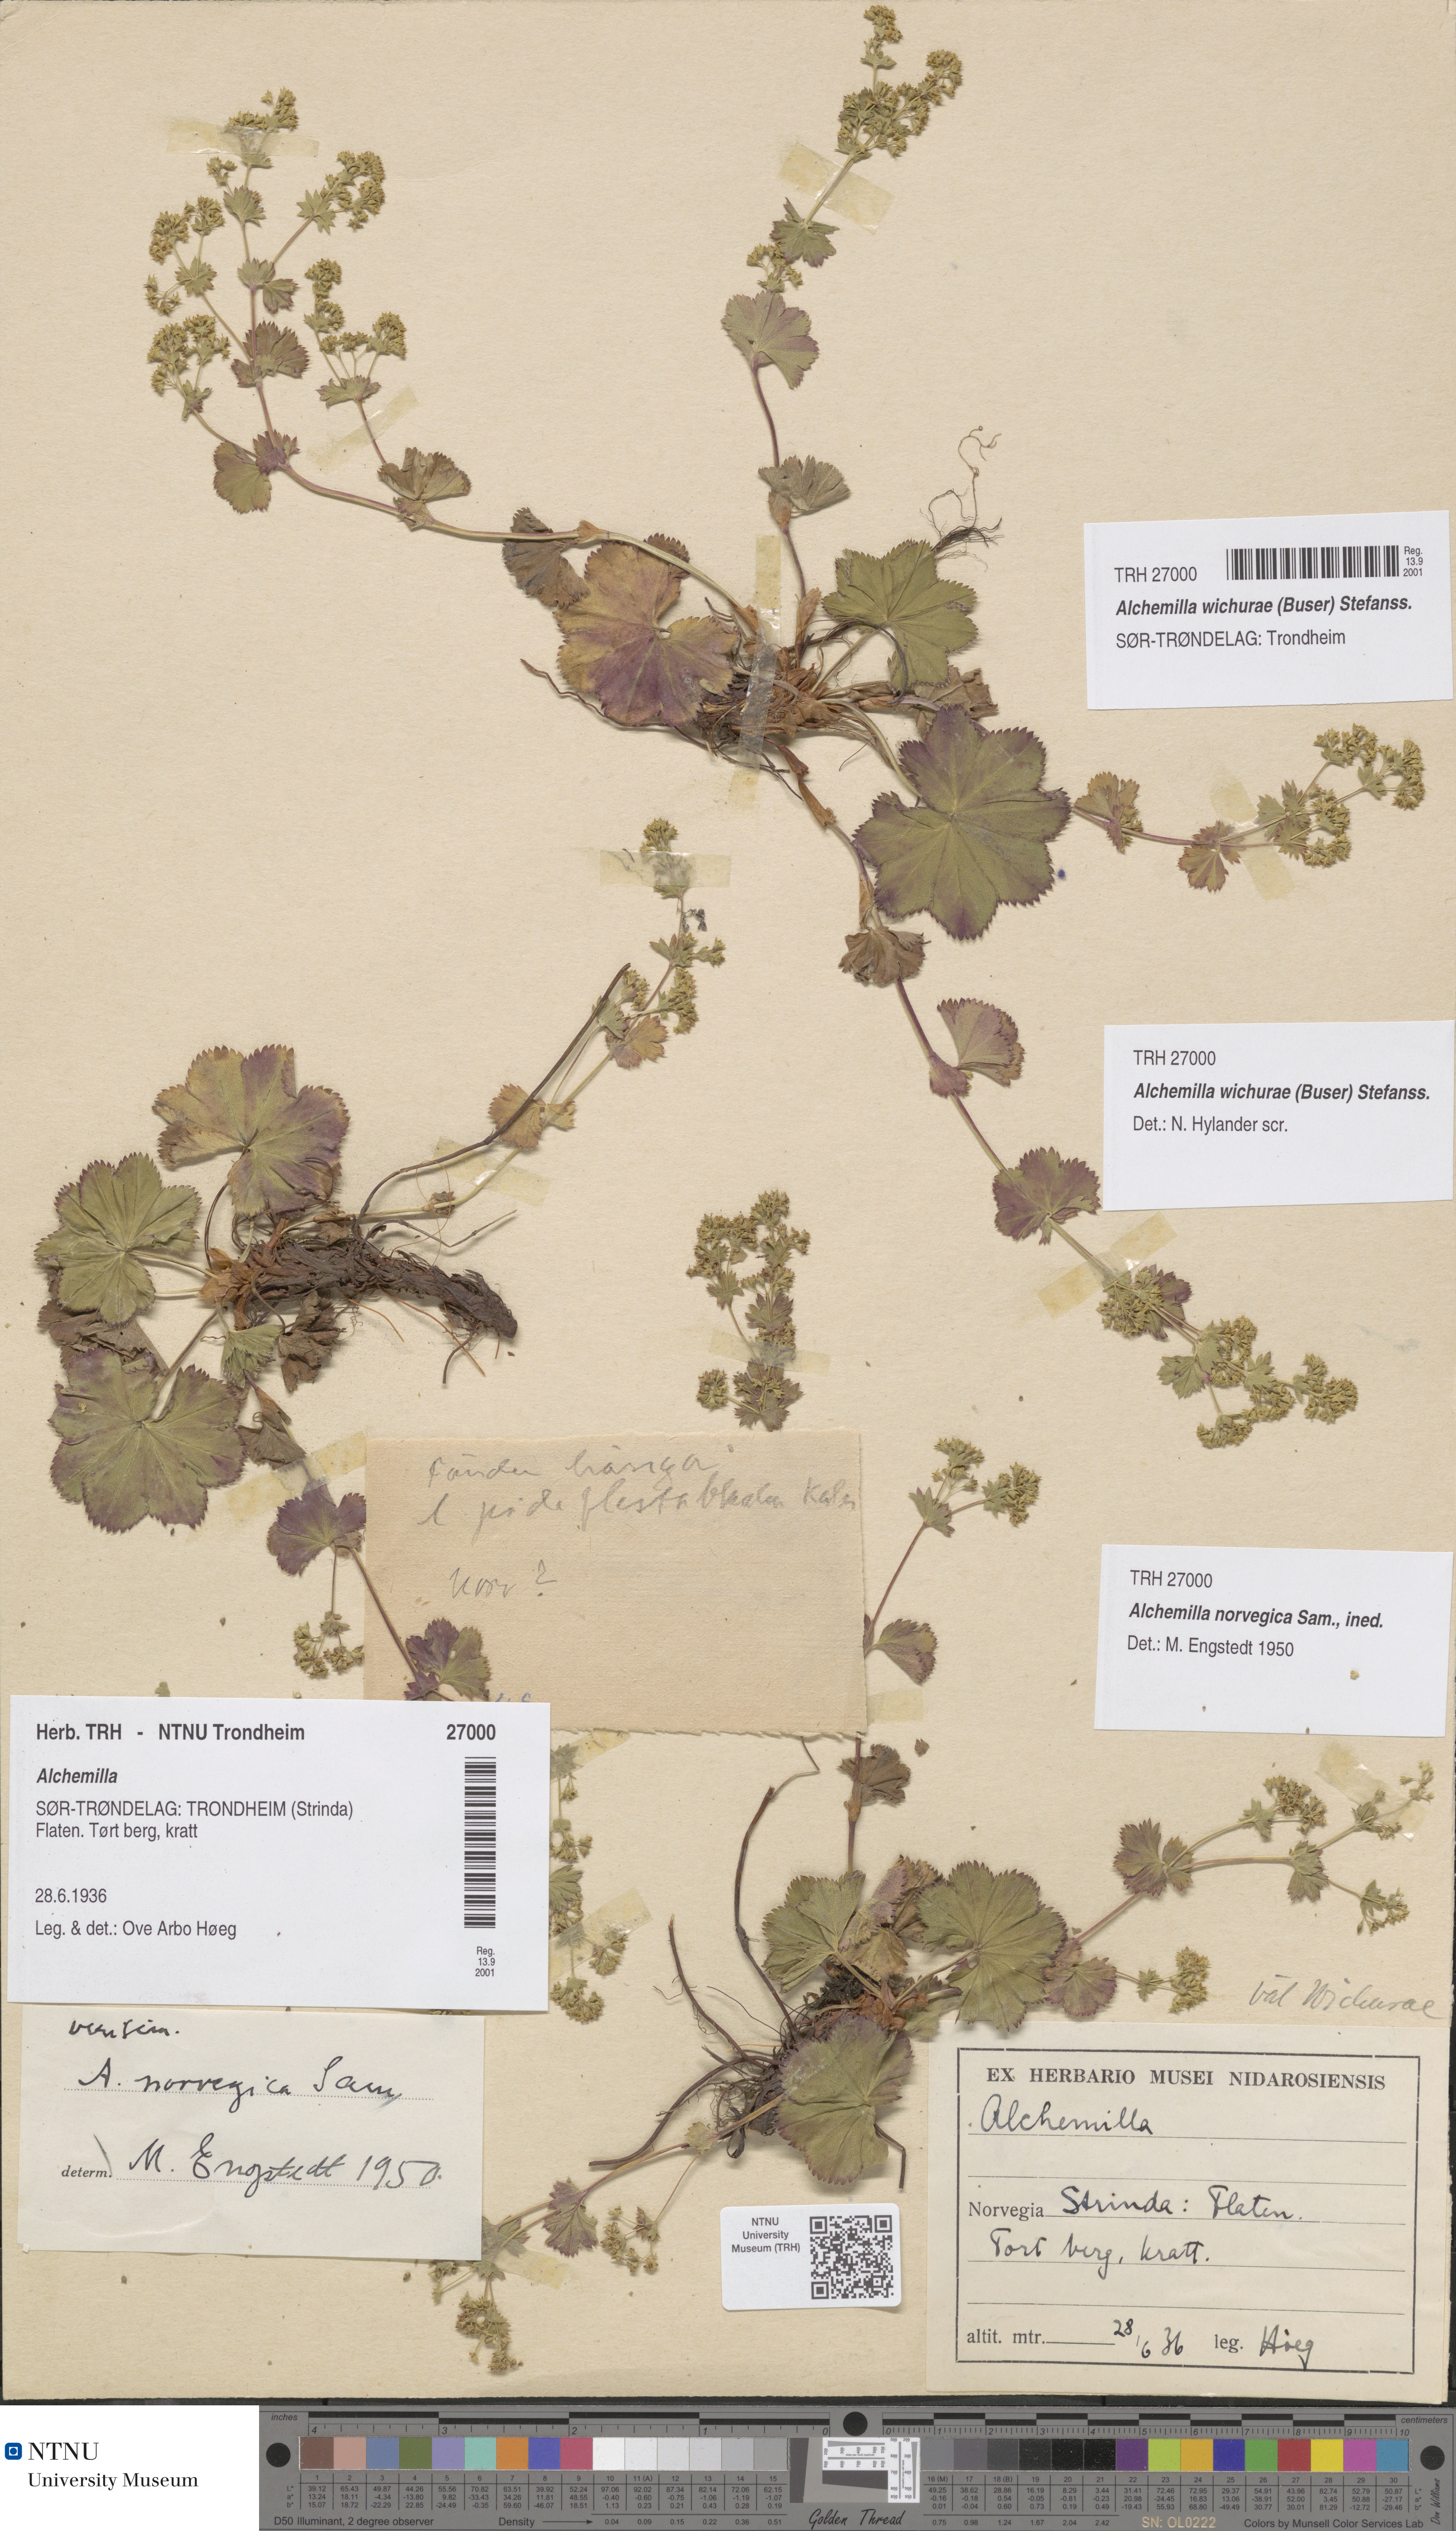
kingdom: Plantae
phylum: Tracheophyta
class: Magnoliopsida
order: Rosales
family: Rosaceae
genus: Alchemilla
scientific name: Alchemilla wichurae
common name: Rock lady's mantle
